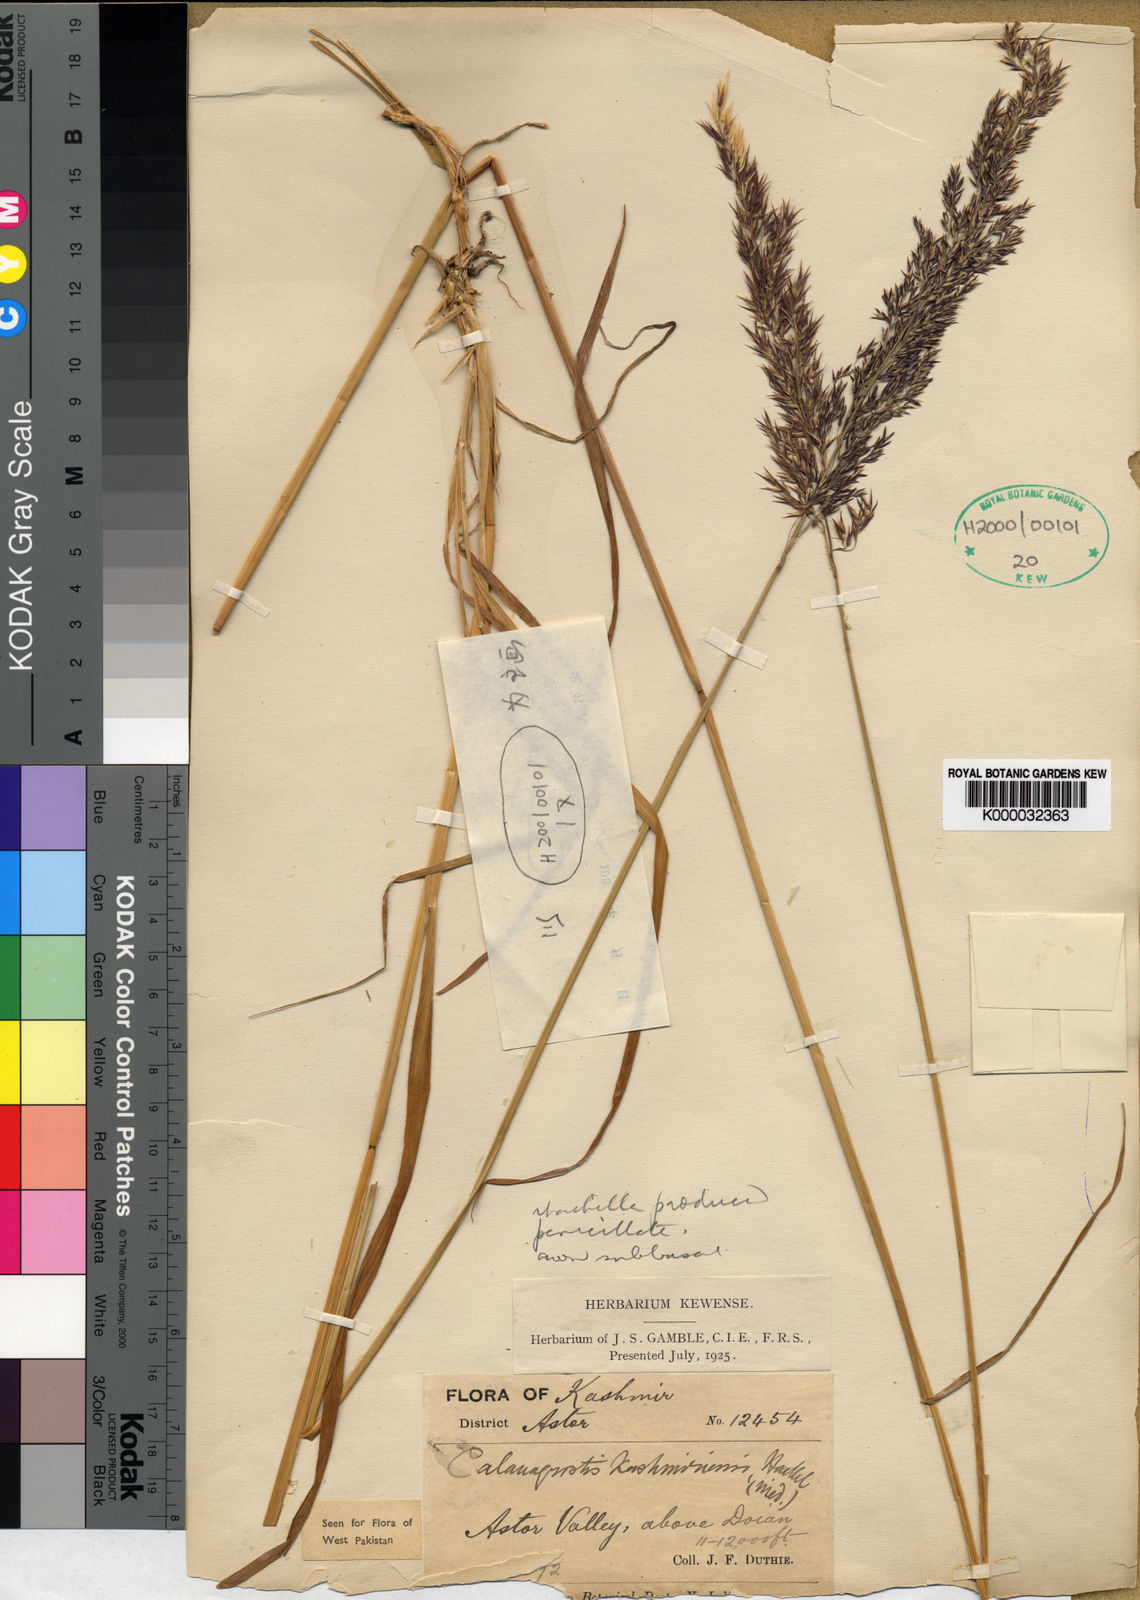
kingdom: Plantae
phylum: Tracheophyta
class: Liliopsida
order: Poales
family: Poaceae
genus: Calamagrostis
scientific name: Calamagrostis decora
